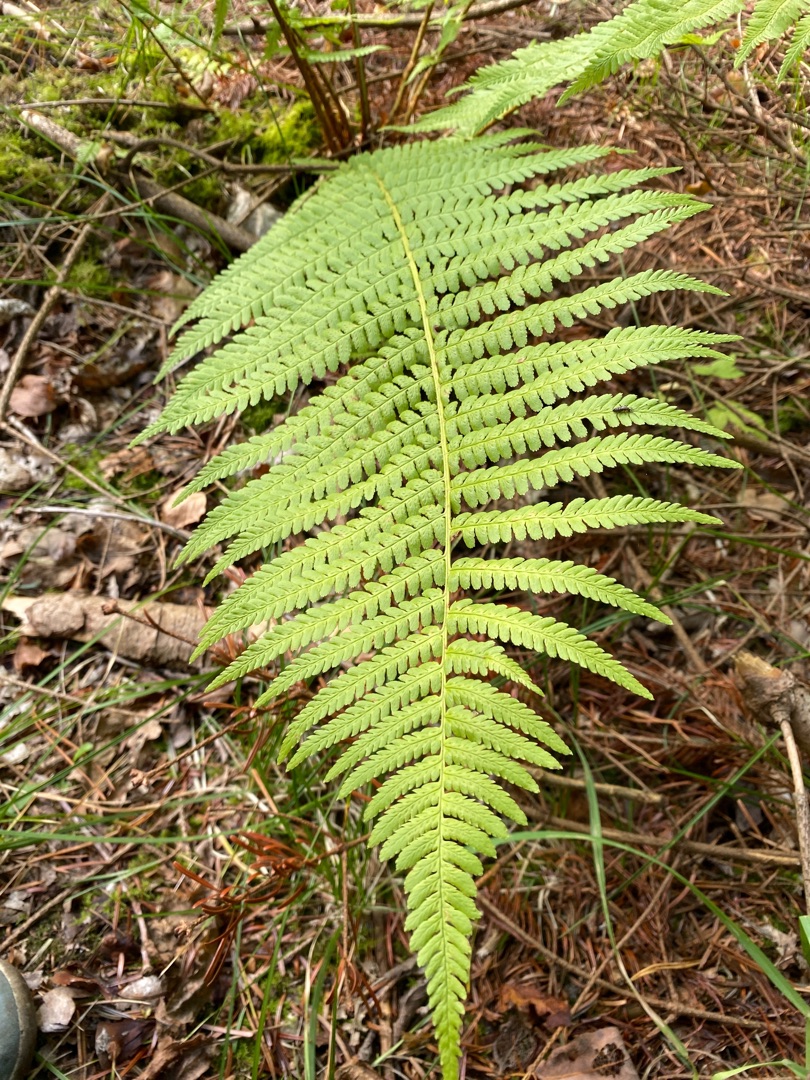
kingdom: Plantae
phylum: Tracheophyta
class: Polypodiopsida
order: Polypodiales
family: Dryopteridaceae
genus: Dryopteris
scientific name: Dryopteris filix-mas
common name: Almindelig mangeløv
